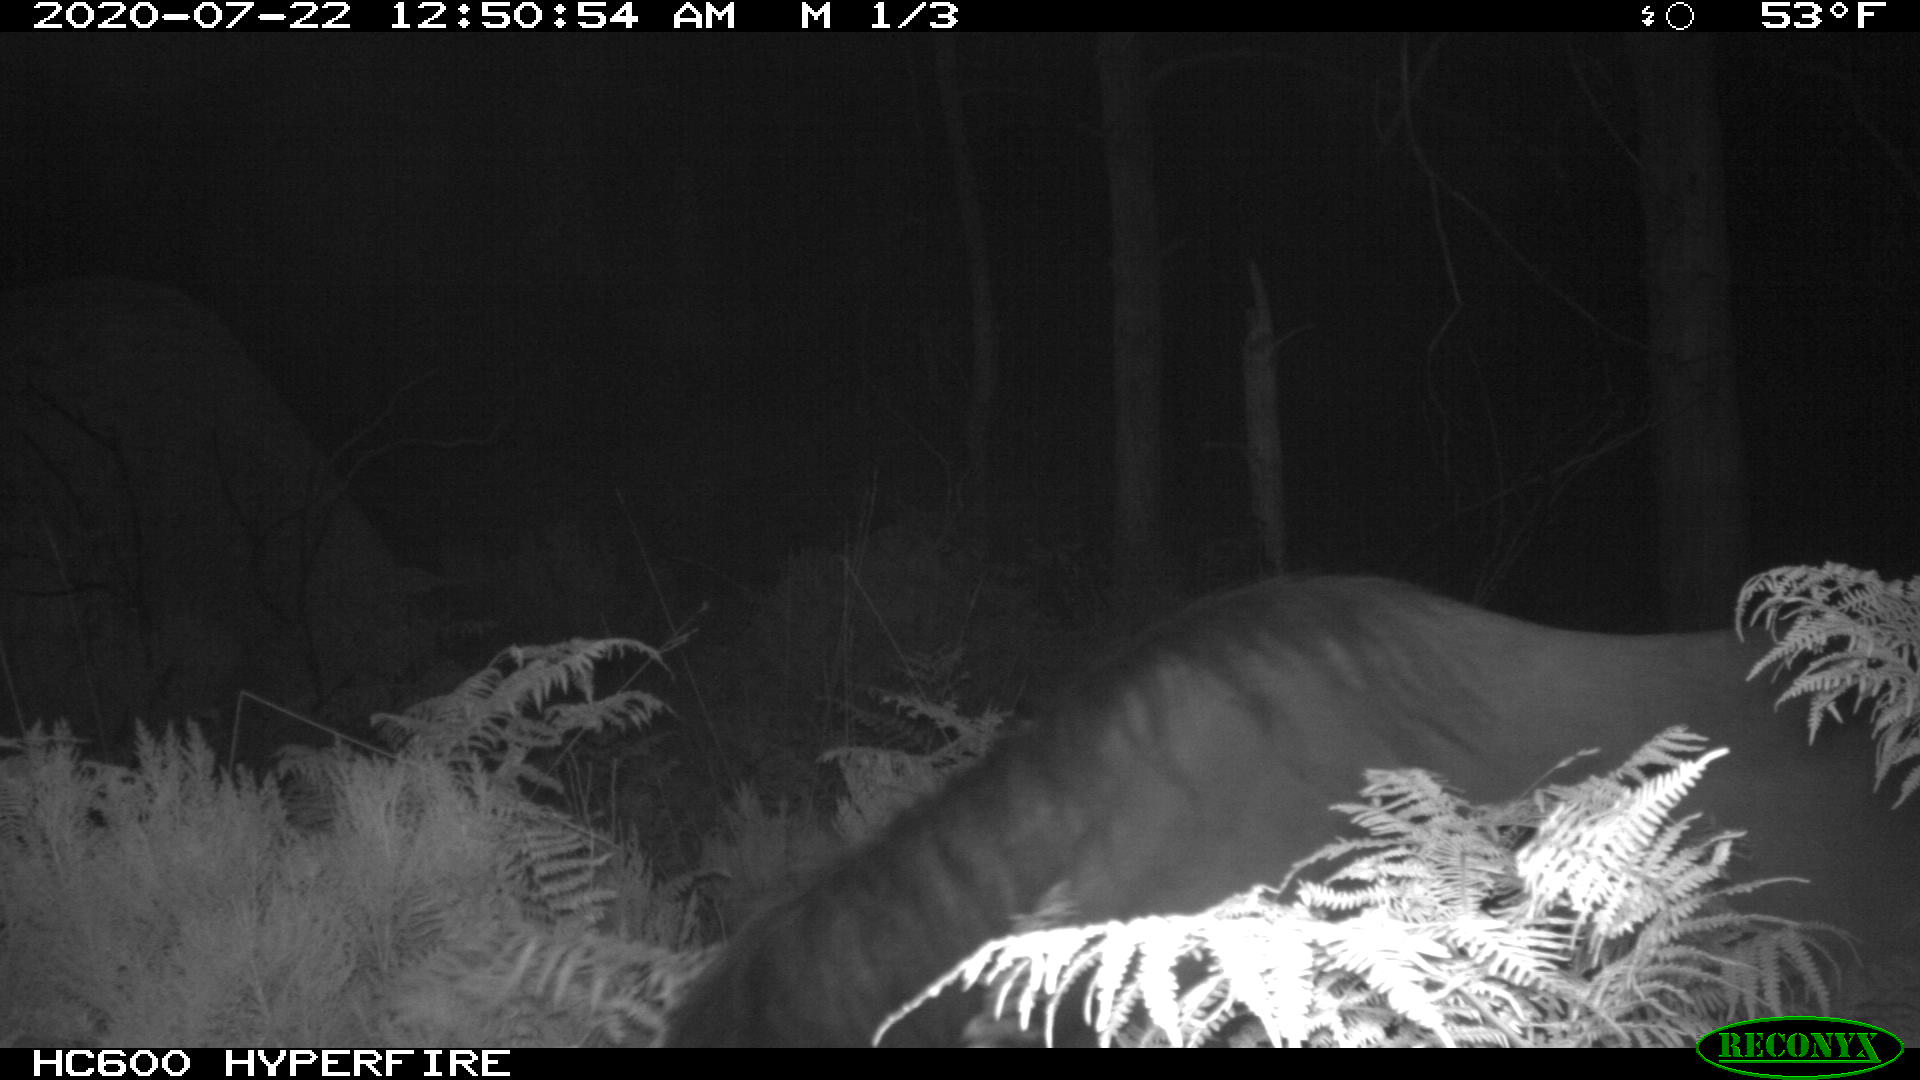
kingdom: Animalia
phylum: Chordata
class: Mammalia
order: Perissodactyla
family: Equidae
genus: Equus
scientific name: Equus caballus
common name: Horse
